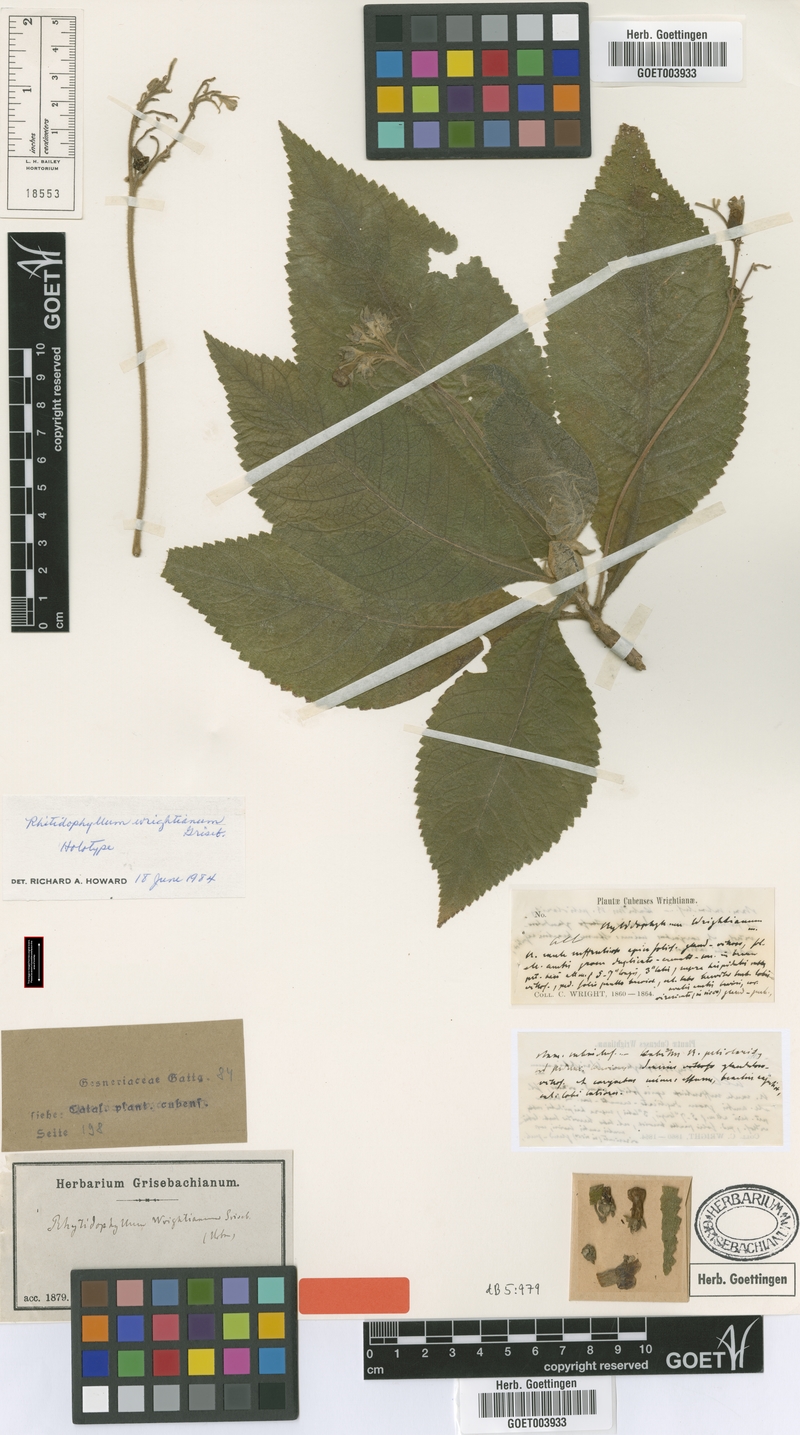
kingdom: Plantae
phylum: Tracheophyta
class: Magnoliopsida
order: Lamiales
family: Gesneriaceae
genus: Rhytidophyllum
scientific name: Rhytidophyllum wrightianum
